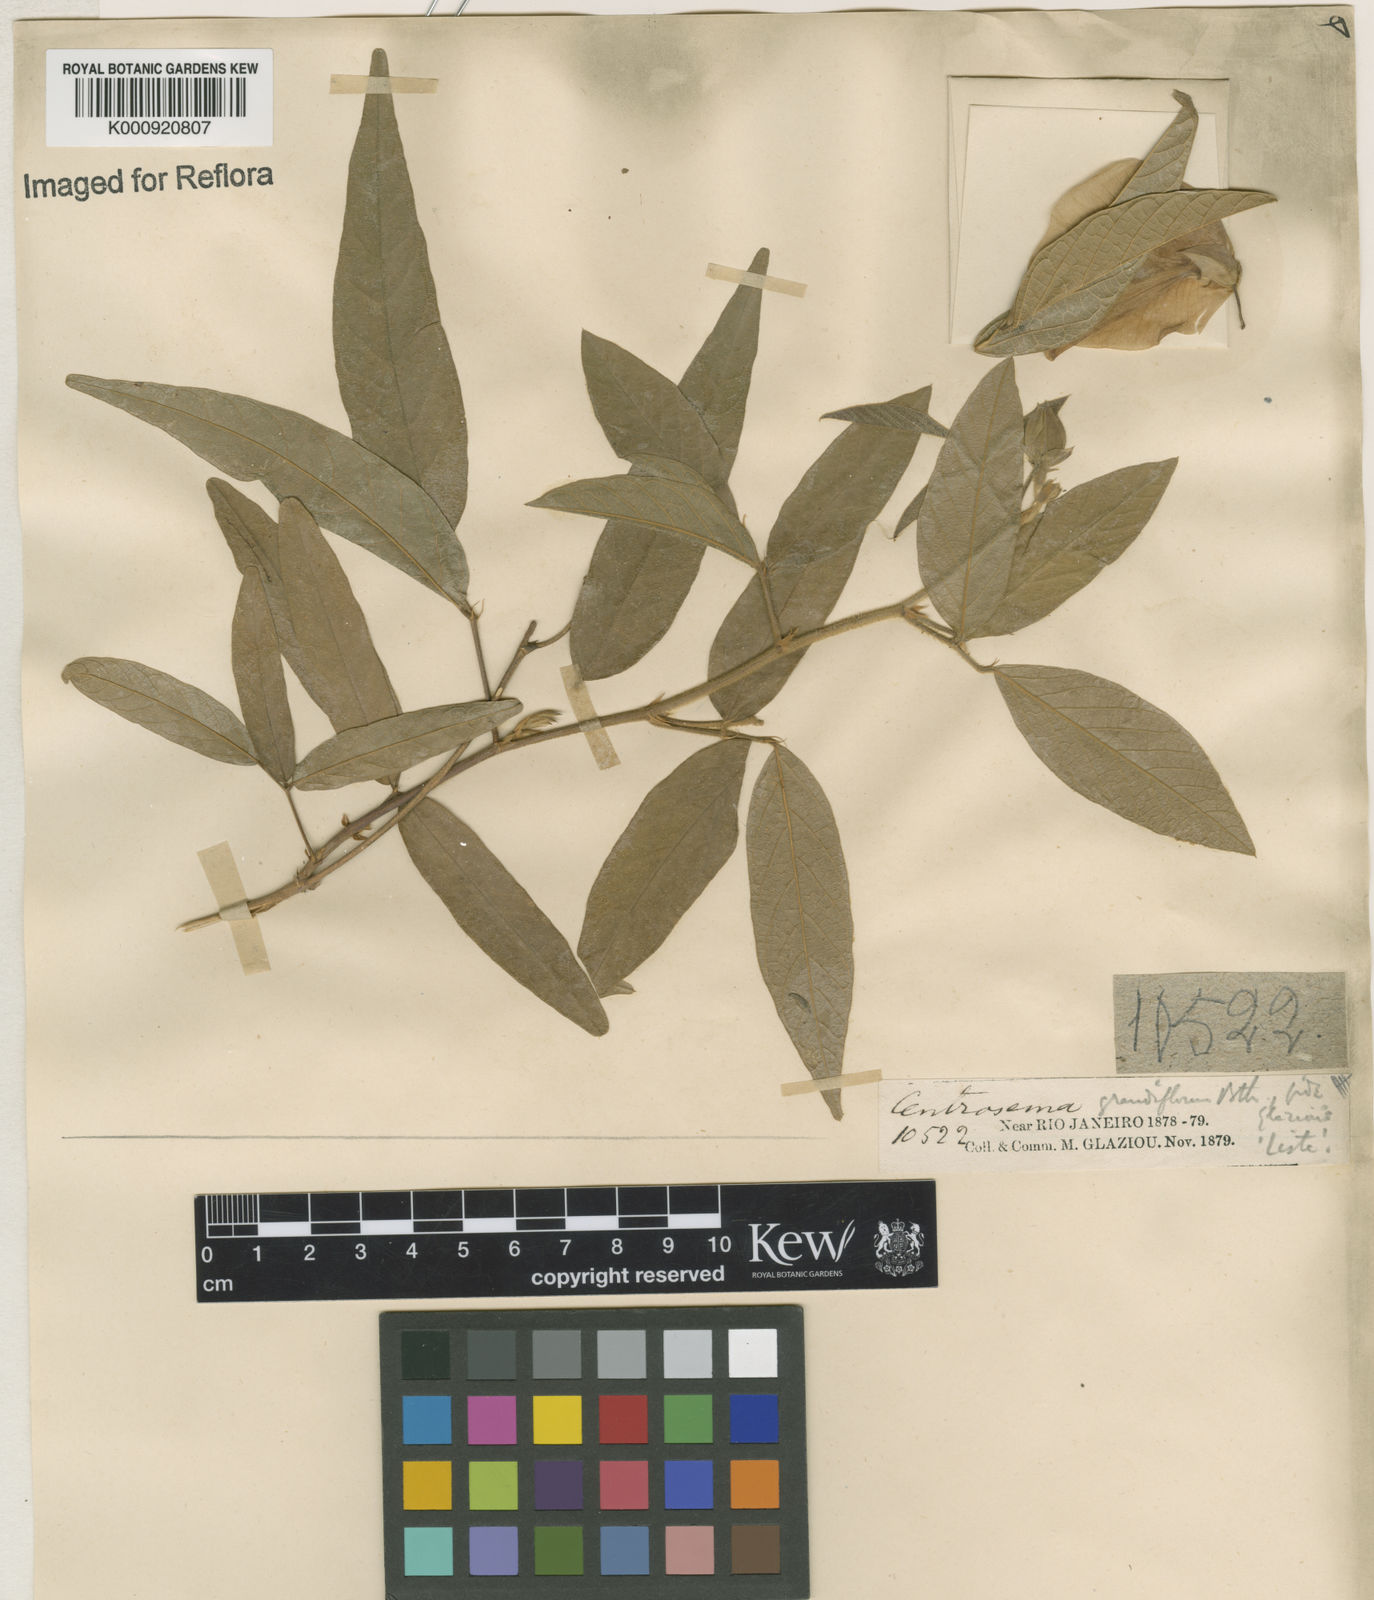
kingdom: Plantae
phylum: Tracheophyta
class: Magnoliopsida
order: Fabales
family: Fabaceae
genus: Centrosema
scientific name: Centrosema arenarium
